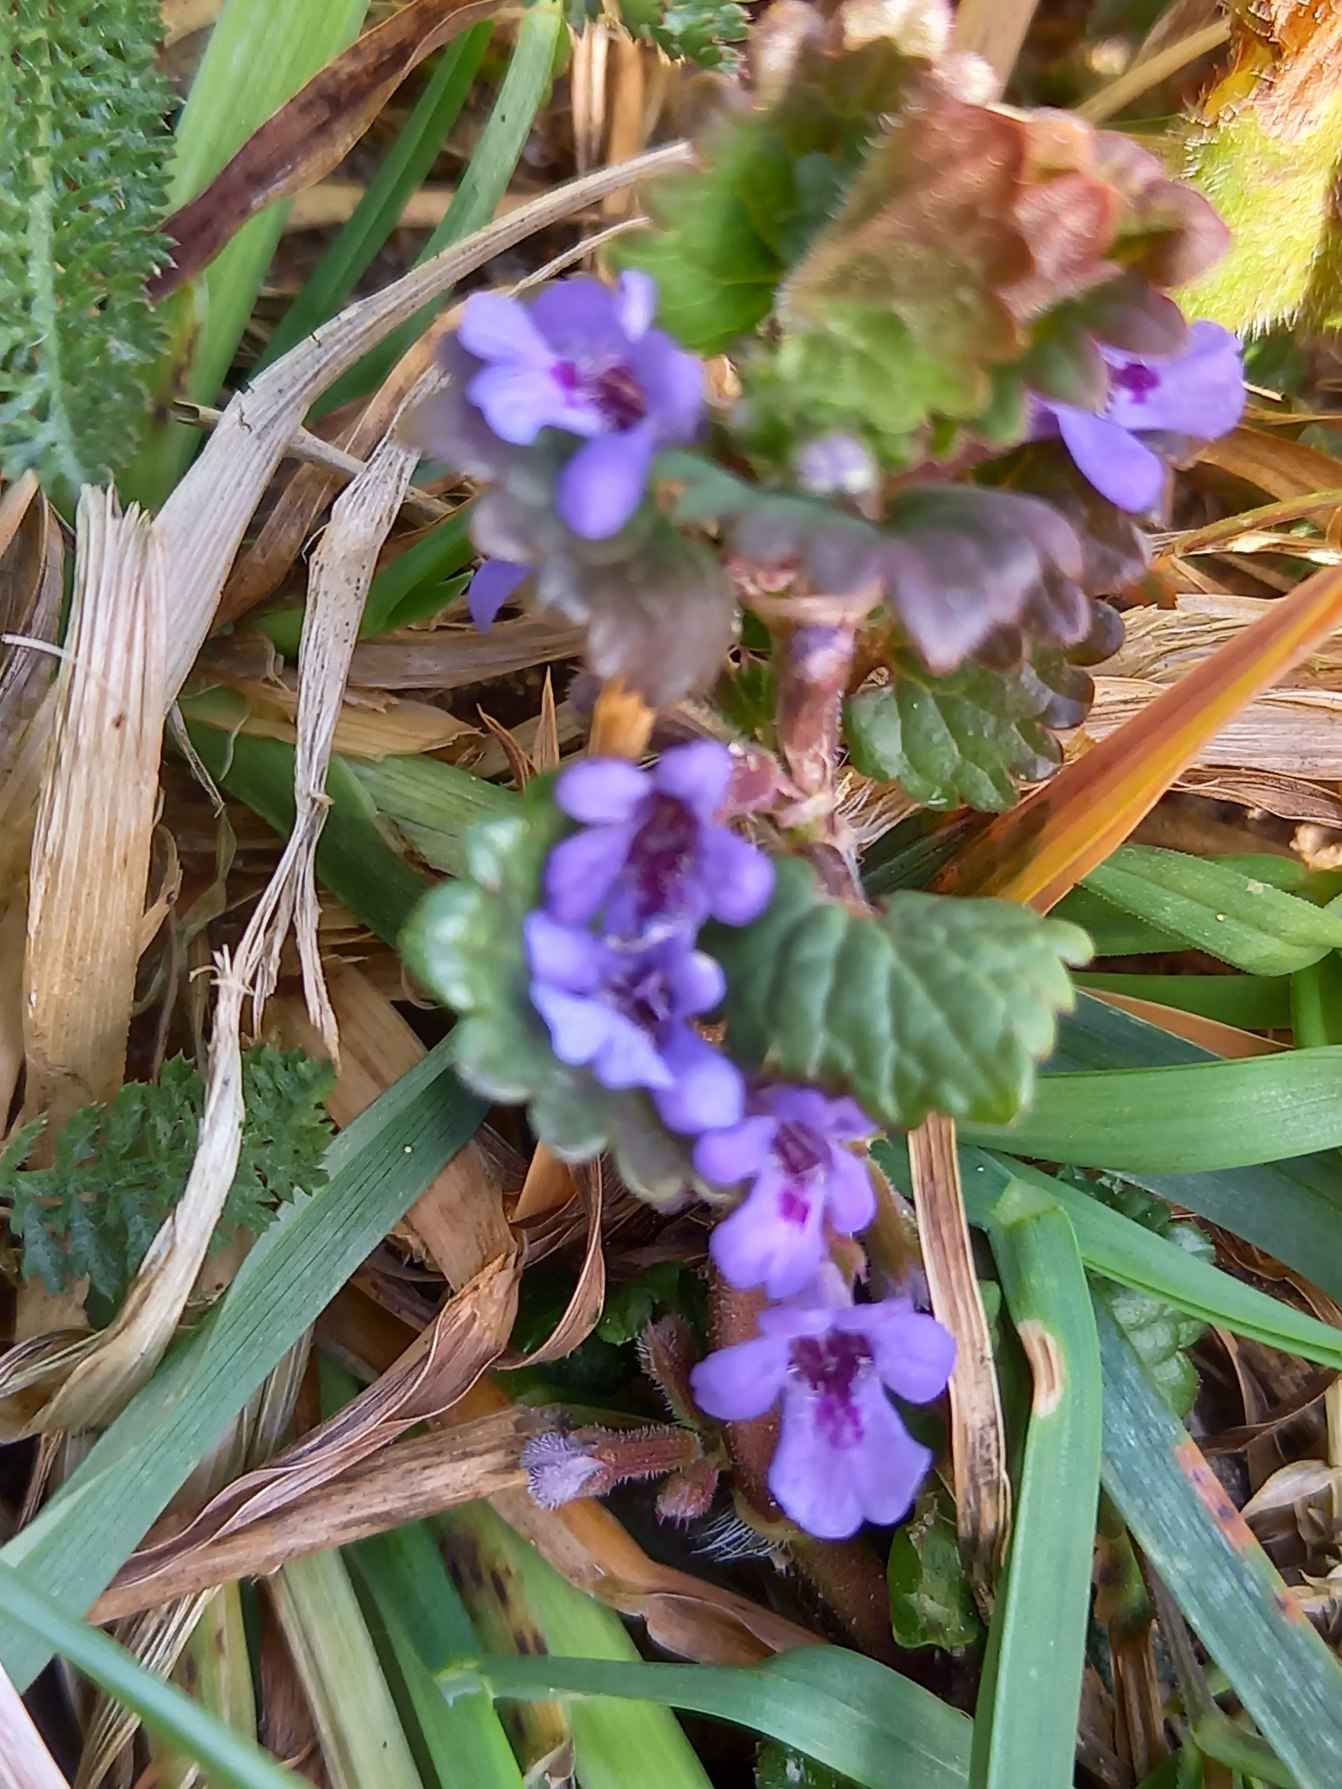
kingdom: Plantae
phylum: Tracheophyta
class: Magnoliopsida
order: Lamiales
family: Lamiaceae
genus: Glechoma
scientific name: Glechoma hederacea
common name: Korsknap
